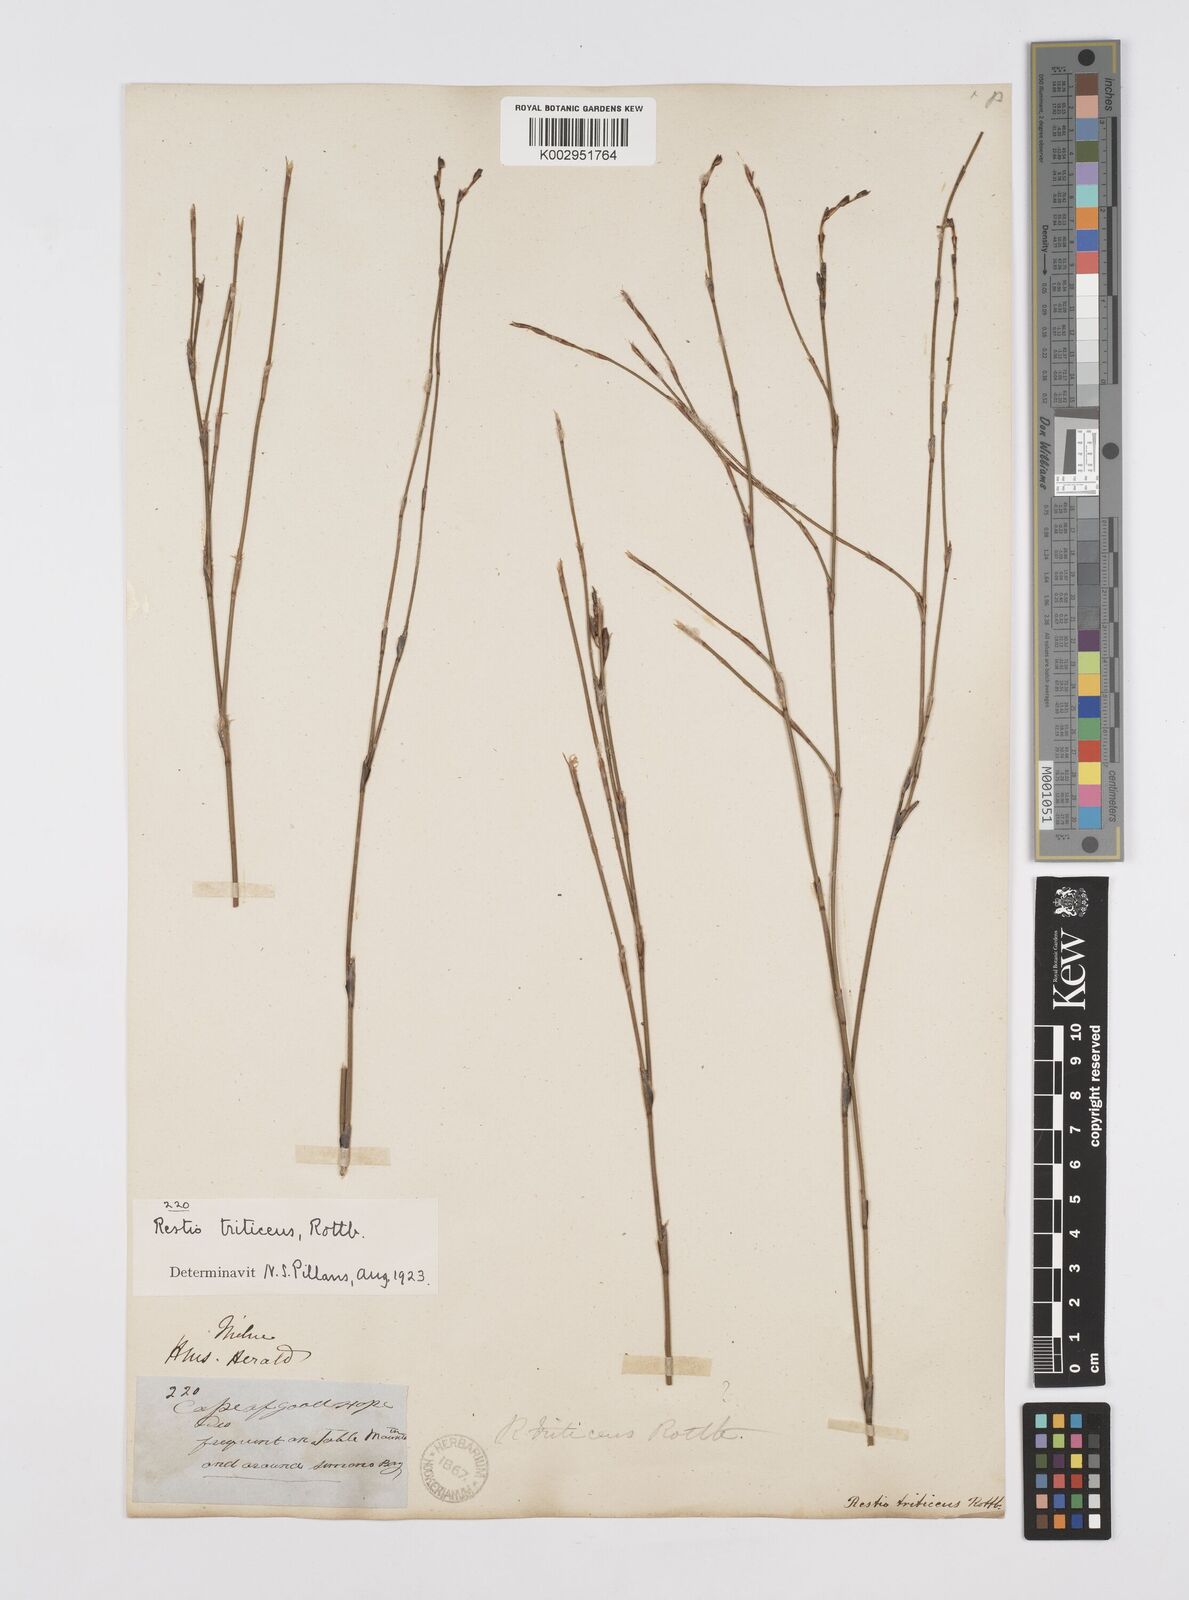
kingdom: Plantae
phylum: Tracheophyta
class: Liliopsida
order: Poales
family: Restionaceae
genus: Restio
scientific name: Restio triticeus
